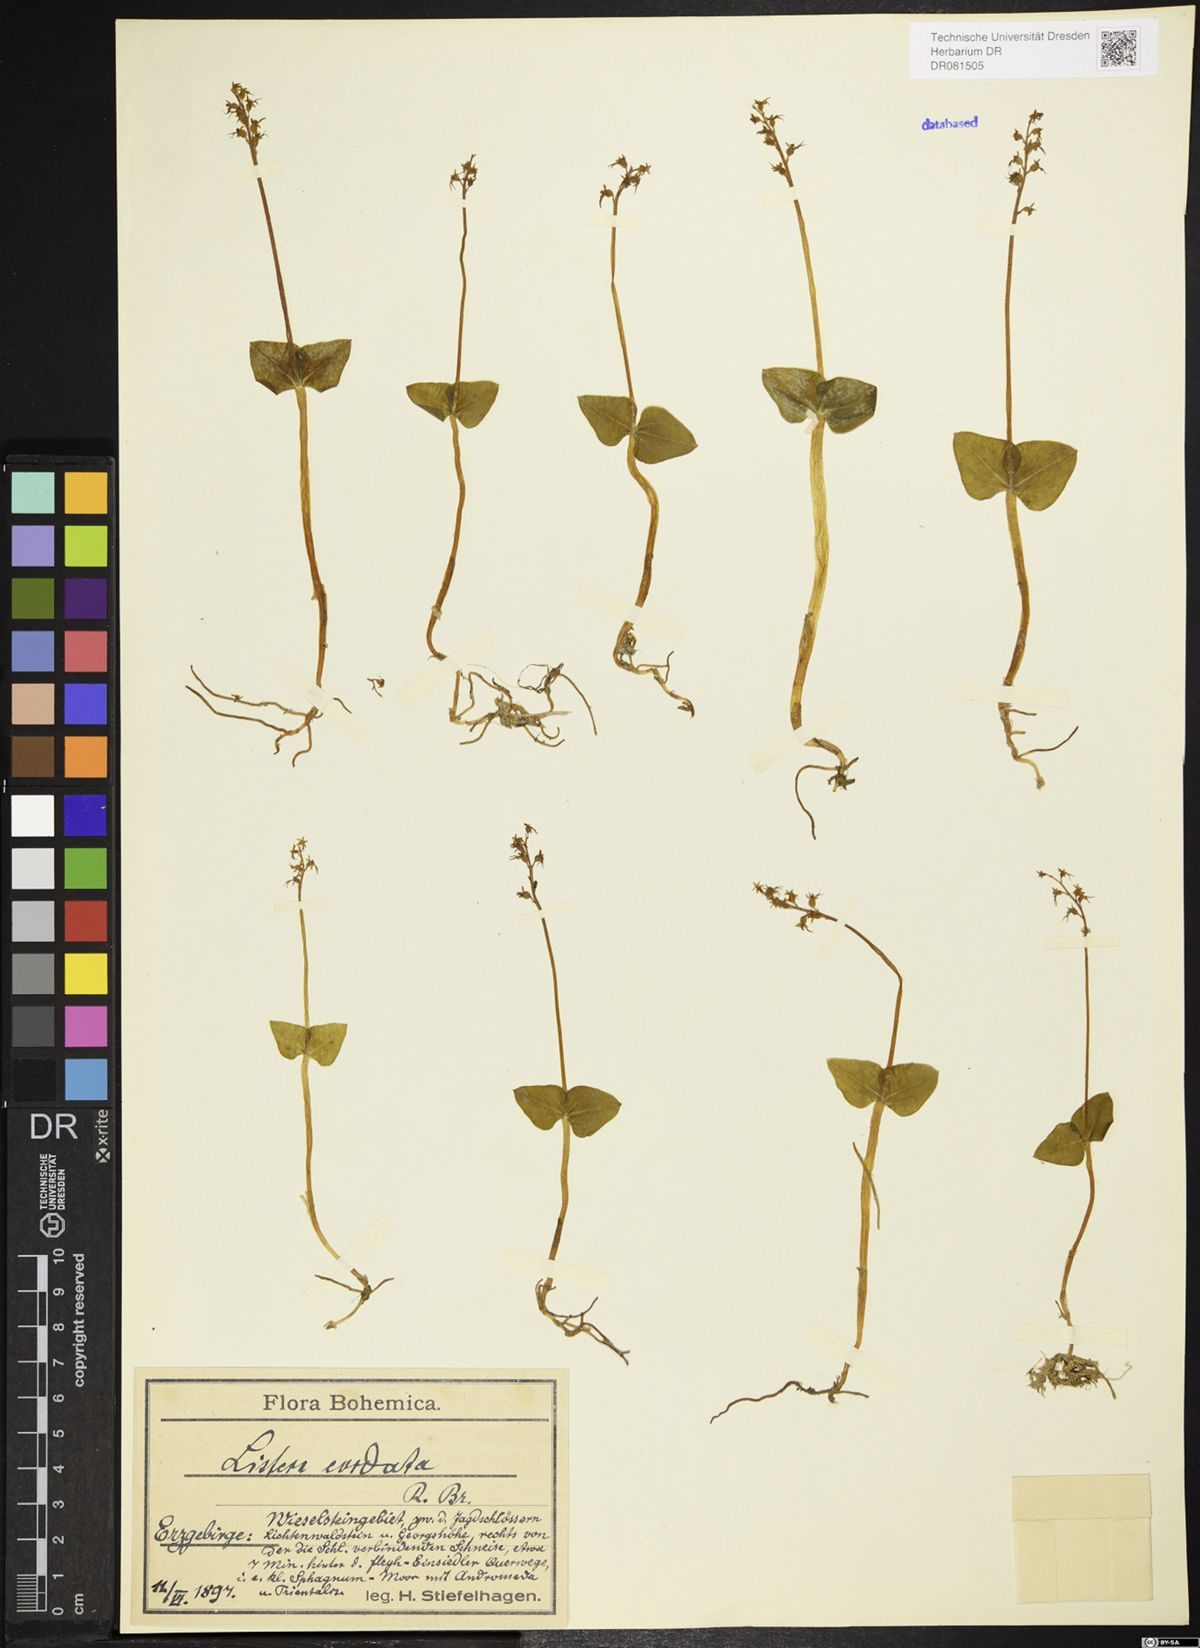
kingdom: Plantae
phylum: Tracheophyta
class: Liliopsida
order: Asparagales
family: Orchidaceae
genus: Neottia
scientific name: Neottia cordata
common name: Lesser twayblade
